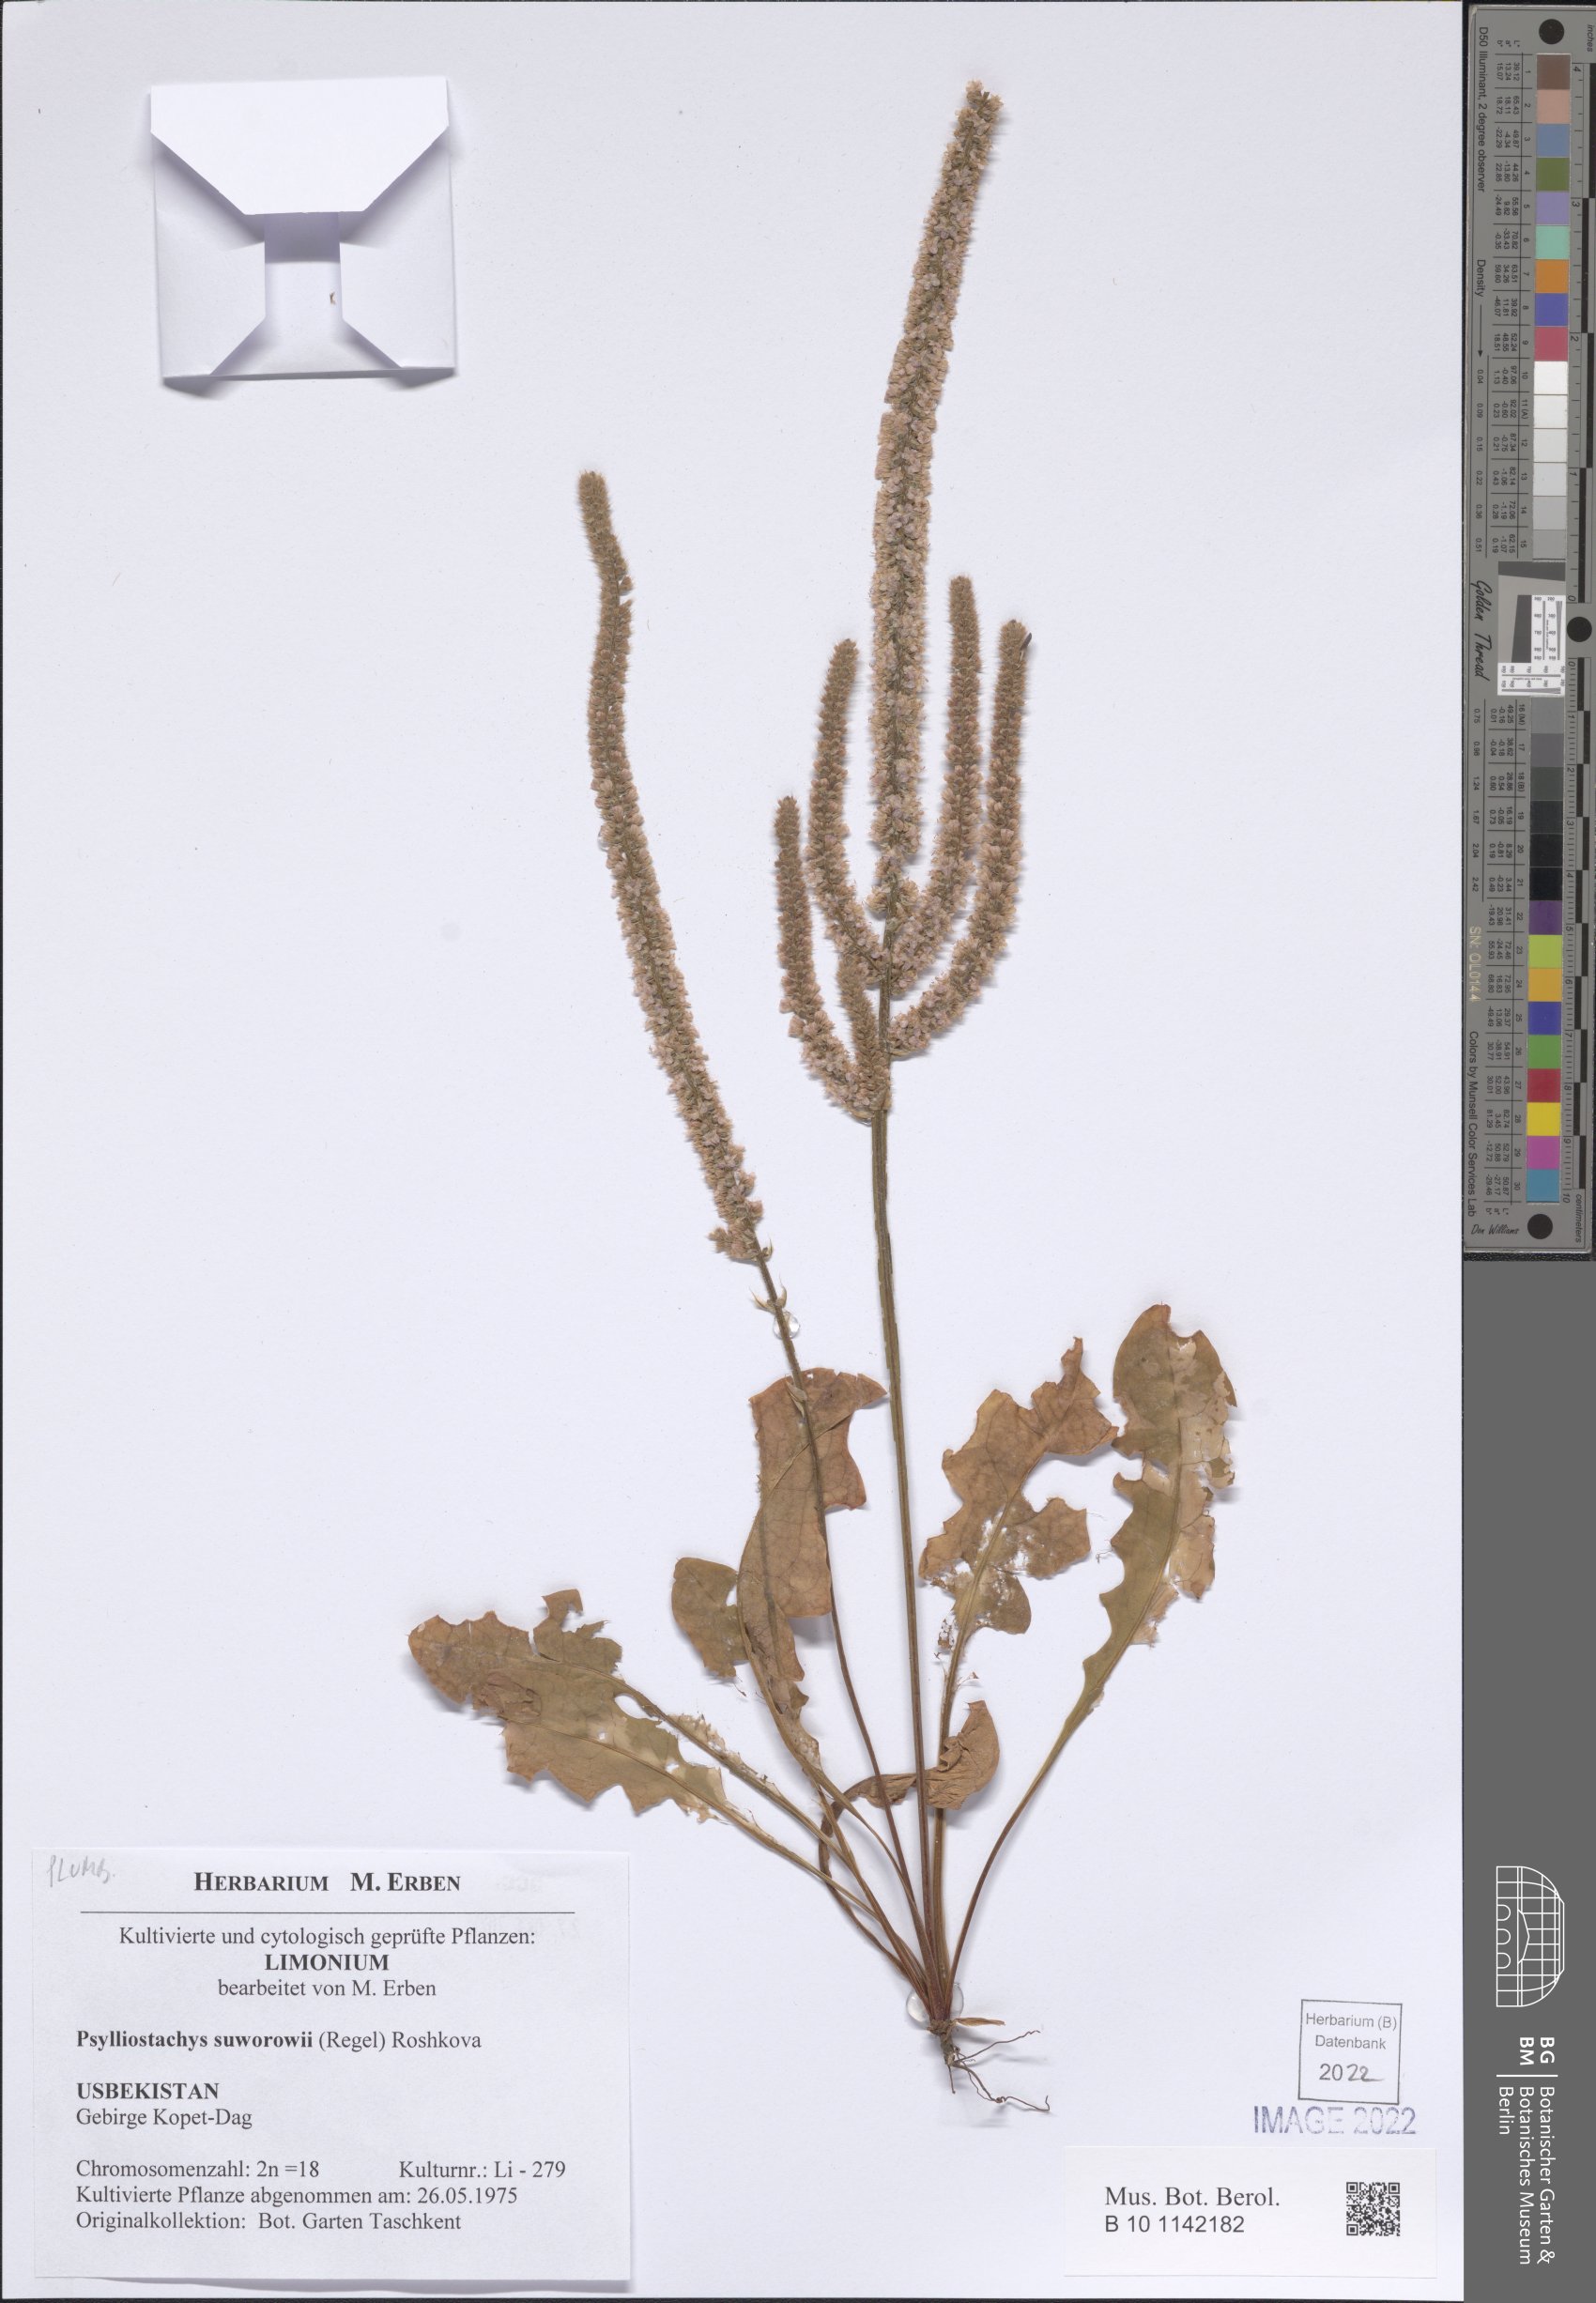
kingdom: Plantae
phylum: Tracheophyta
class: Magnoliopsida
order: Caryophyllales
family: Plumbaginaceae
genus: Psylliostachys
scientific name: Psylliostachys suworowii
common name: Rat-tail statice
